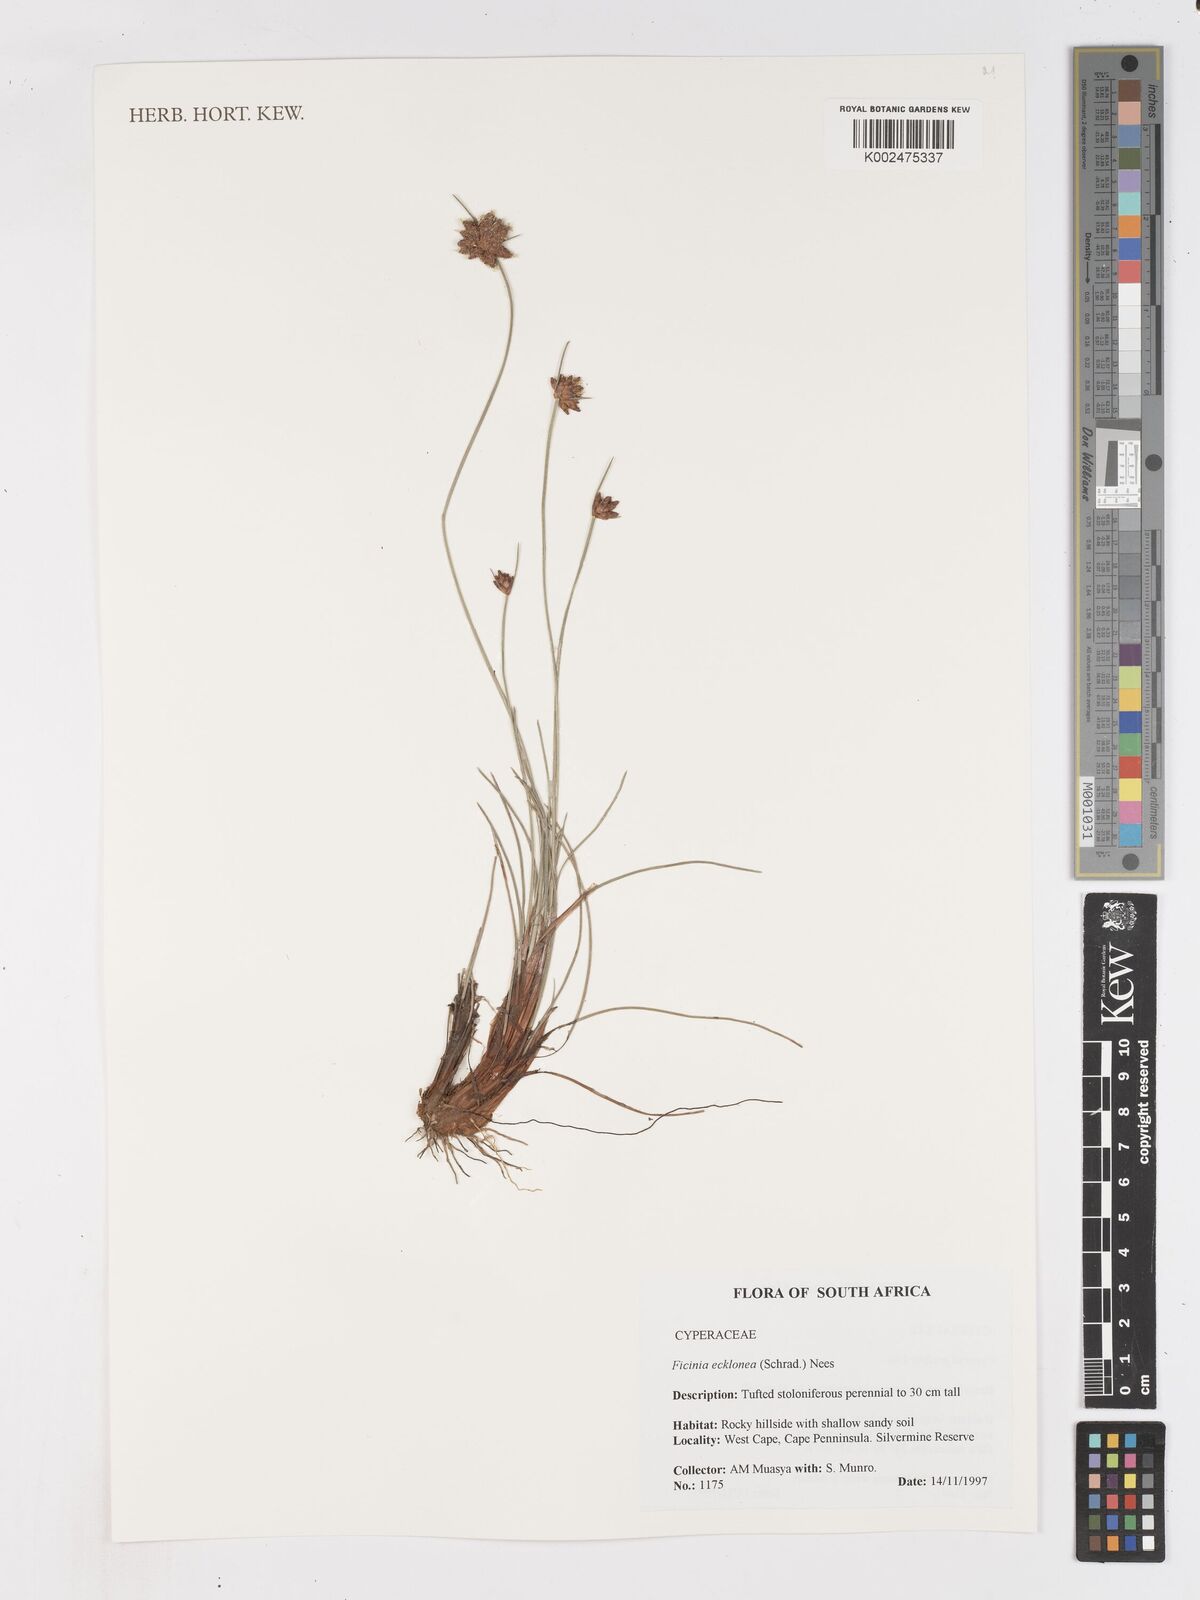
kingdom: Plantae
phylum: Tracheophyta
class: Liliopsida
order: Poales
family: Cyperaceae
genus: Ficinia
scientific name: Ficinia ecklonea
